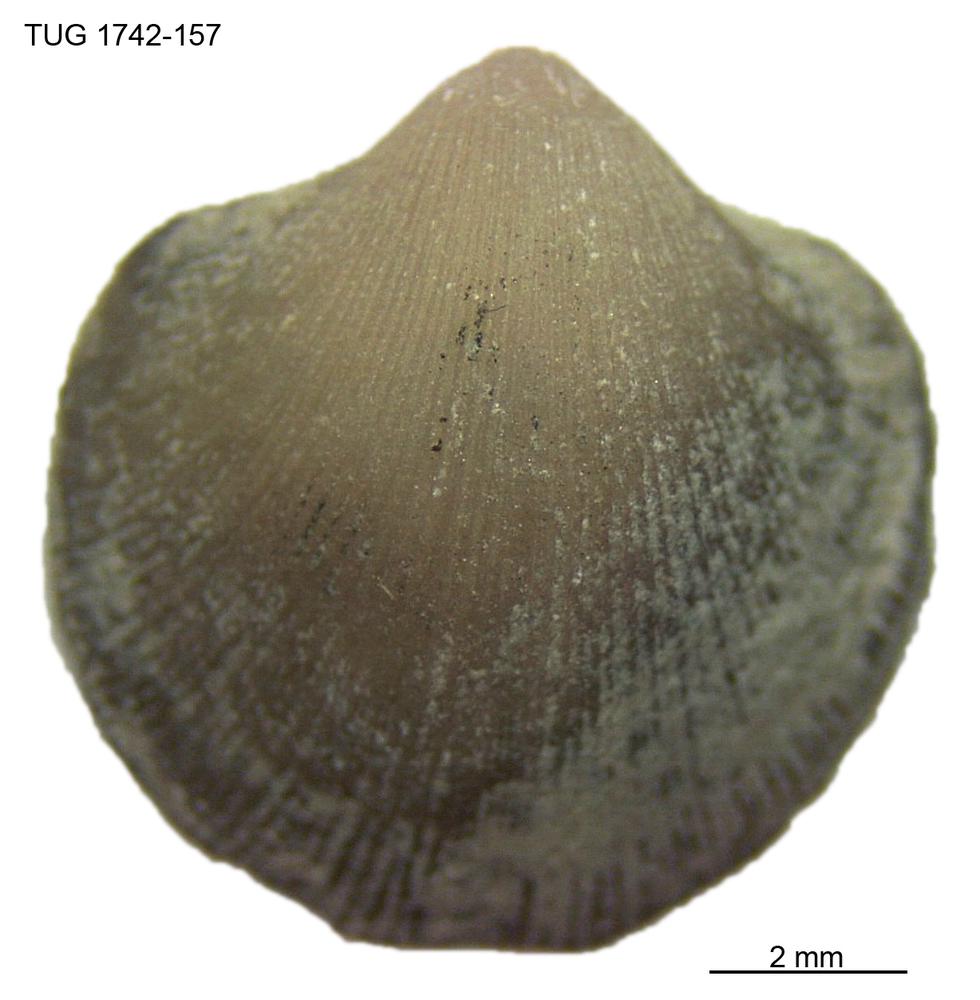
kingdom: Animalia
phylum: Brachiopoda
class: Rhynchonellata
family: Anazygidae
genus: Pentlandella
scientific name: Pentlandella
